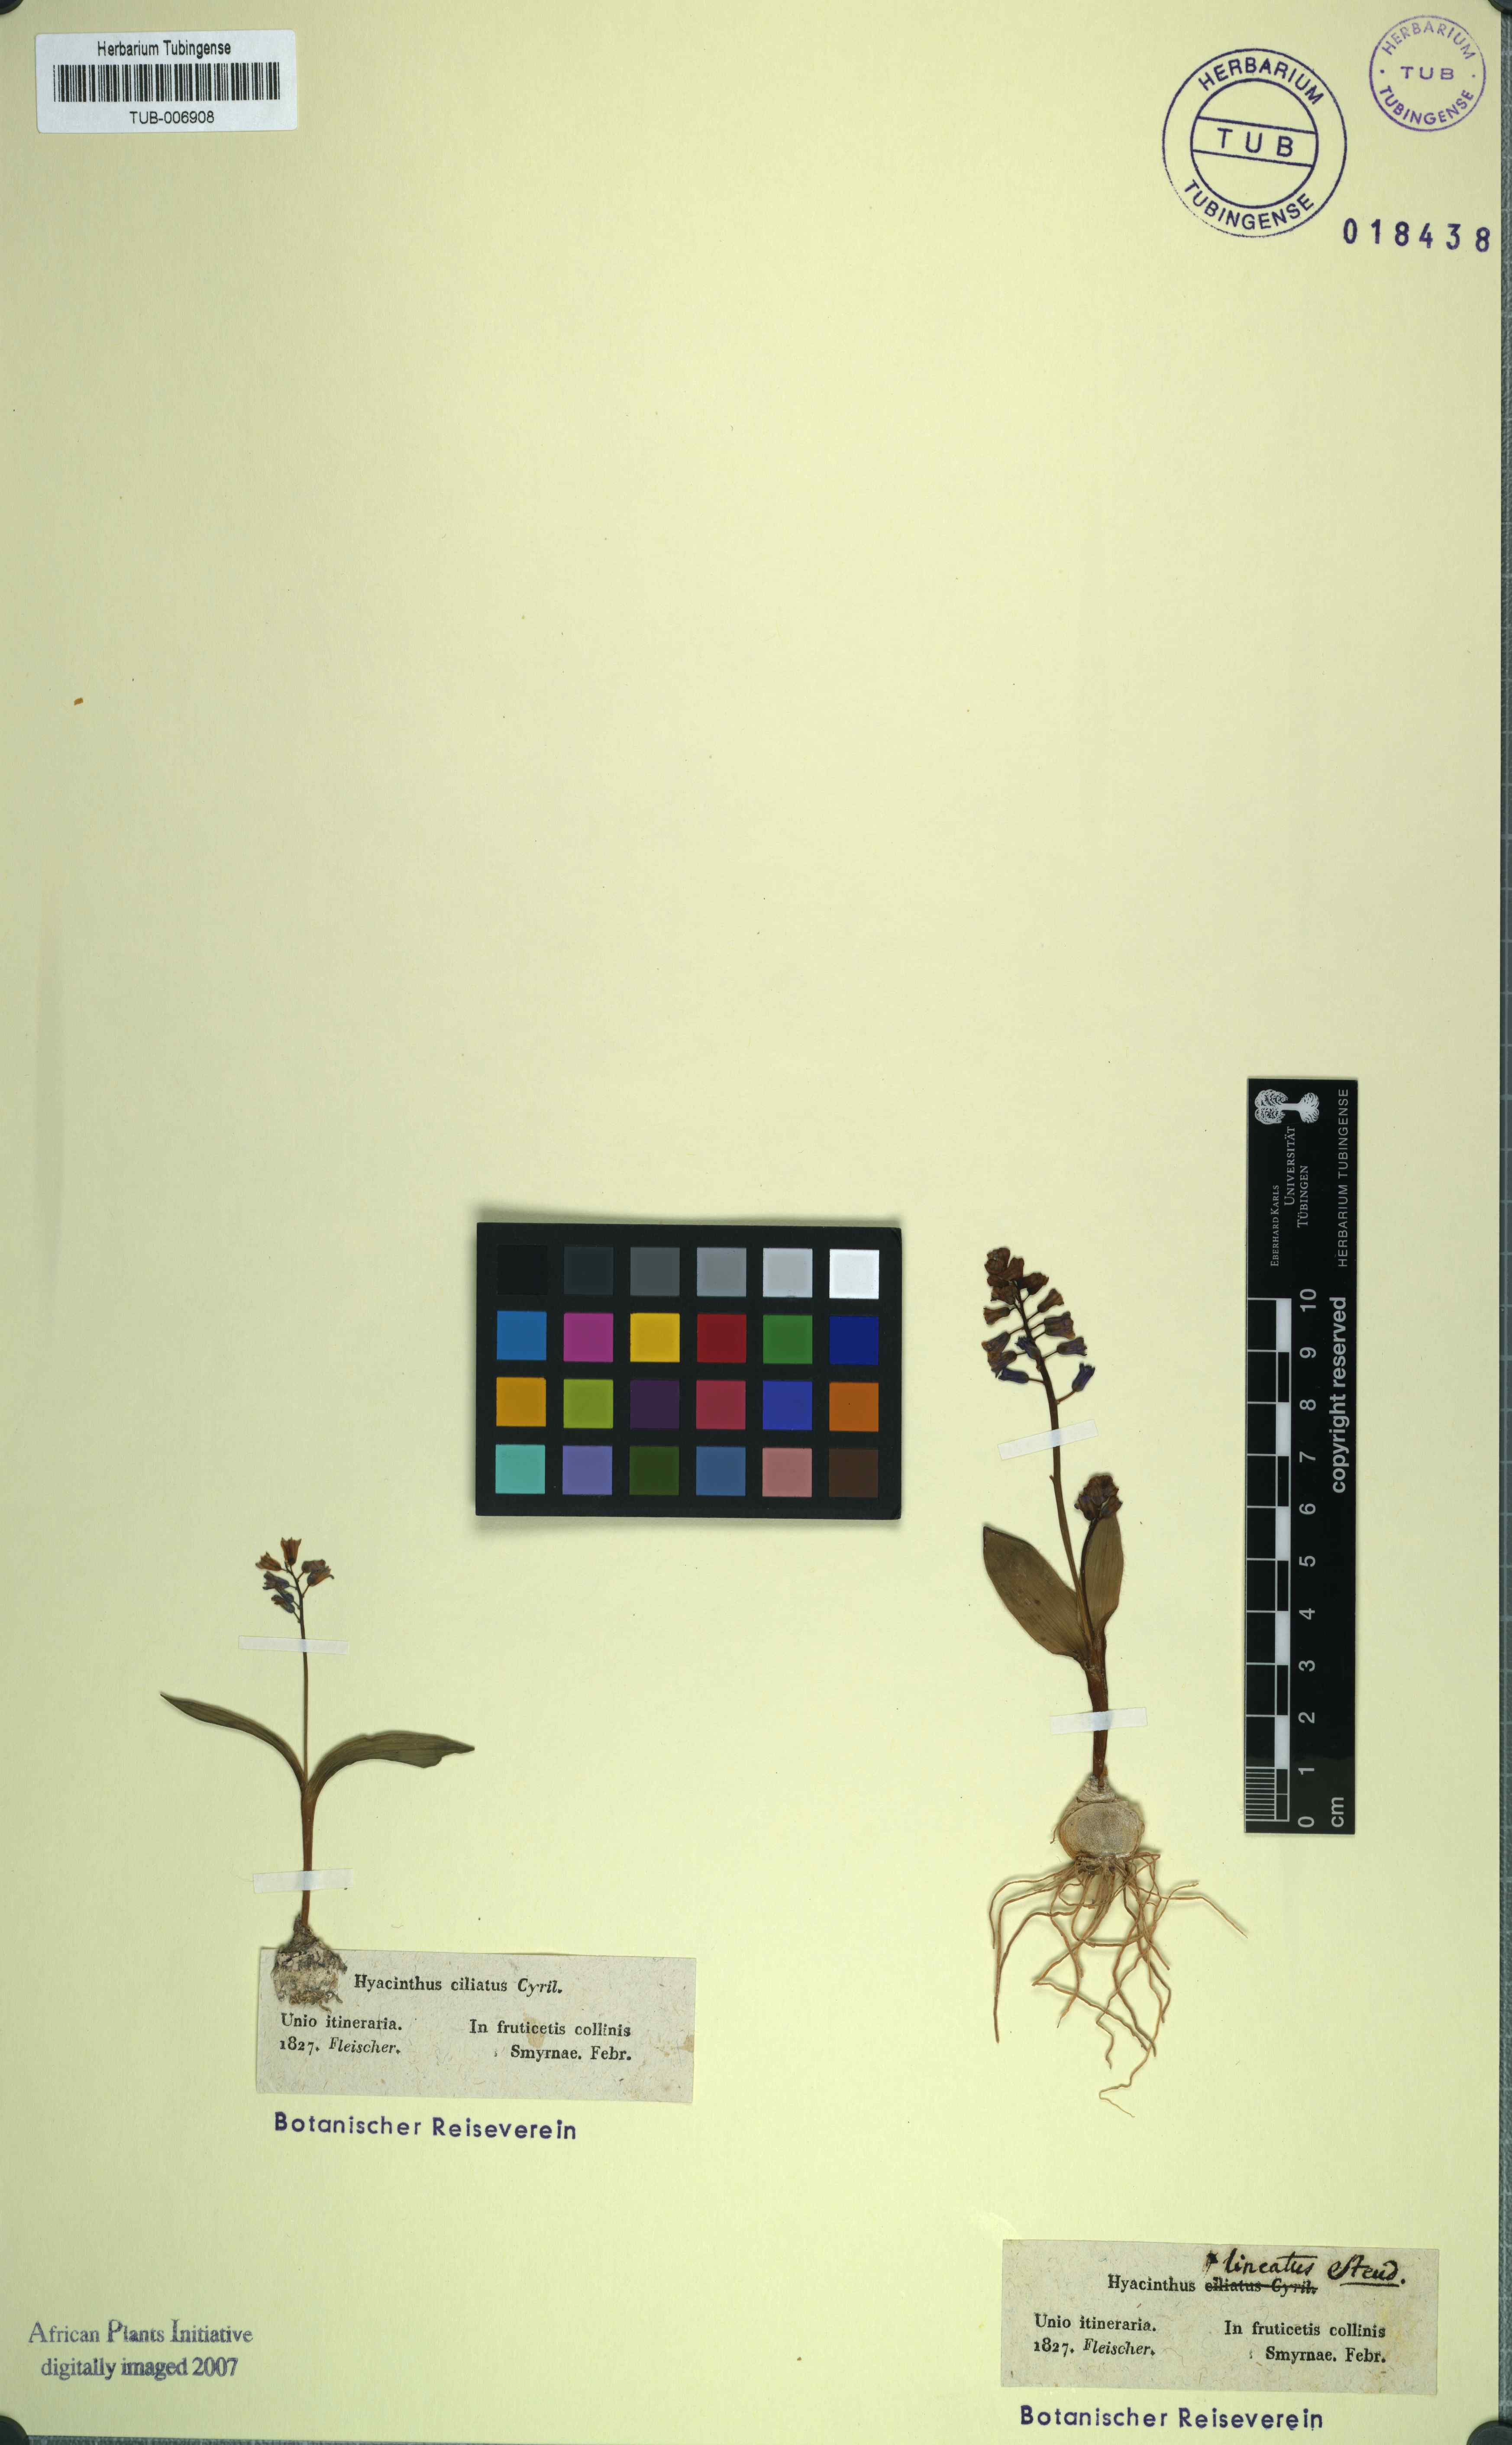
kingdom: Plantae
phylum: Tracheophyta
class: Liliopsida
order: Asparagales
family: Asparagaceae
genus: Bellevalia
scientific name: Bellevalia ciliata
